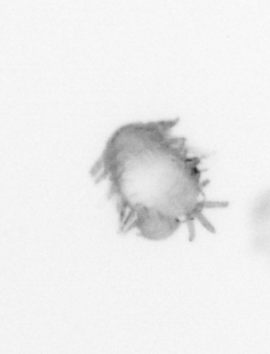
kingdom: Animalia
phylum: Annelida
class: Polychaeta
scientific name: Polychaeta
